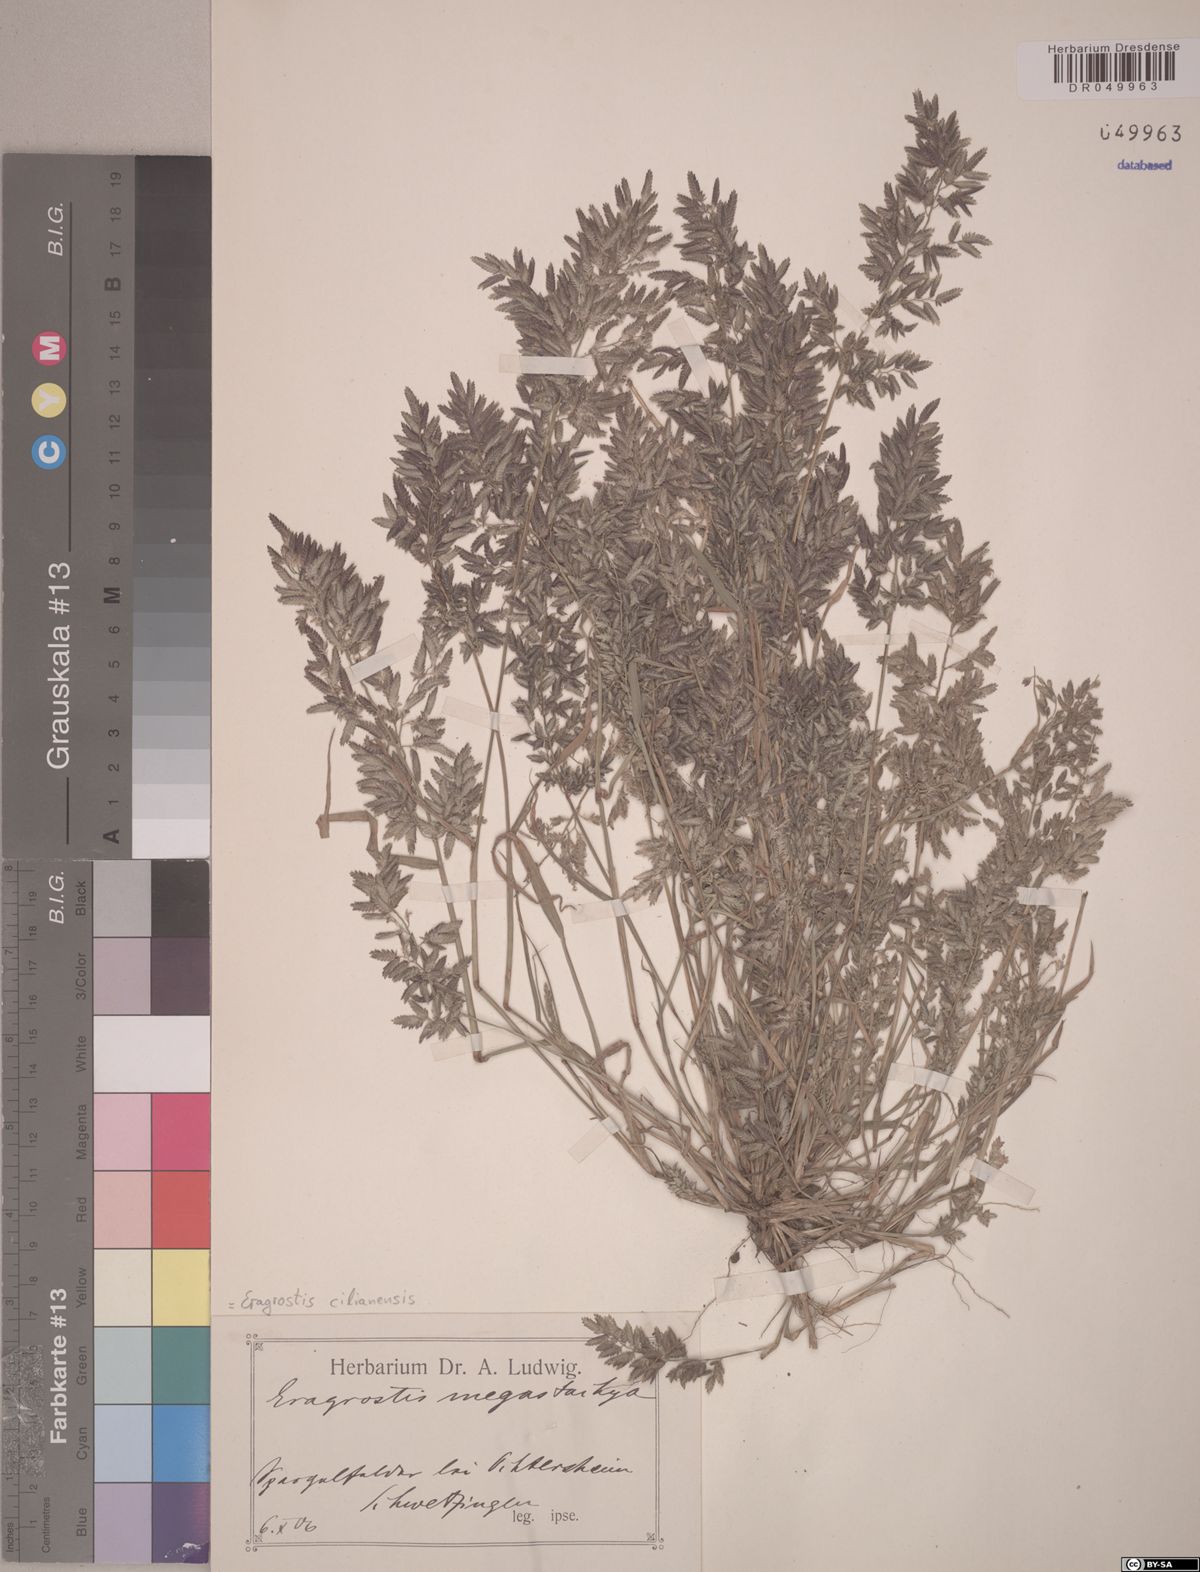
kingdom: Plantae
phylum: Tracheophyta
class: Liliopsida
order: Poales
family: Poaceae
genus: Eragrostis
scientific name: Eragrostis cilianensis
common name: Stinkgrass
